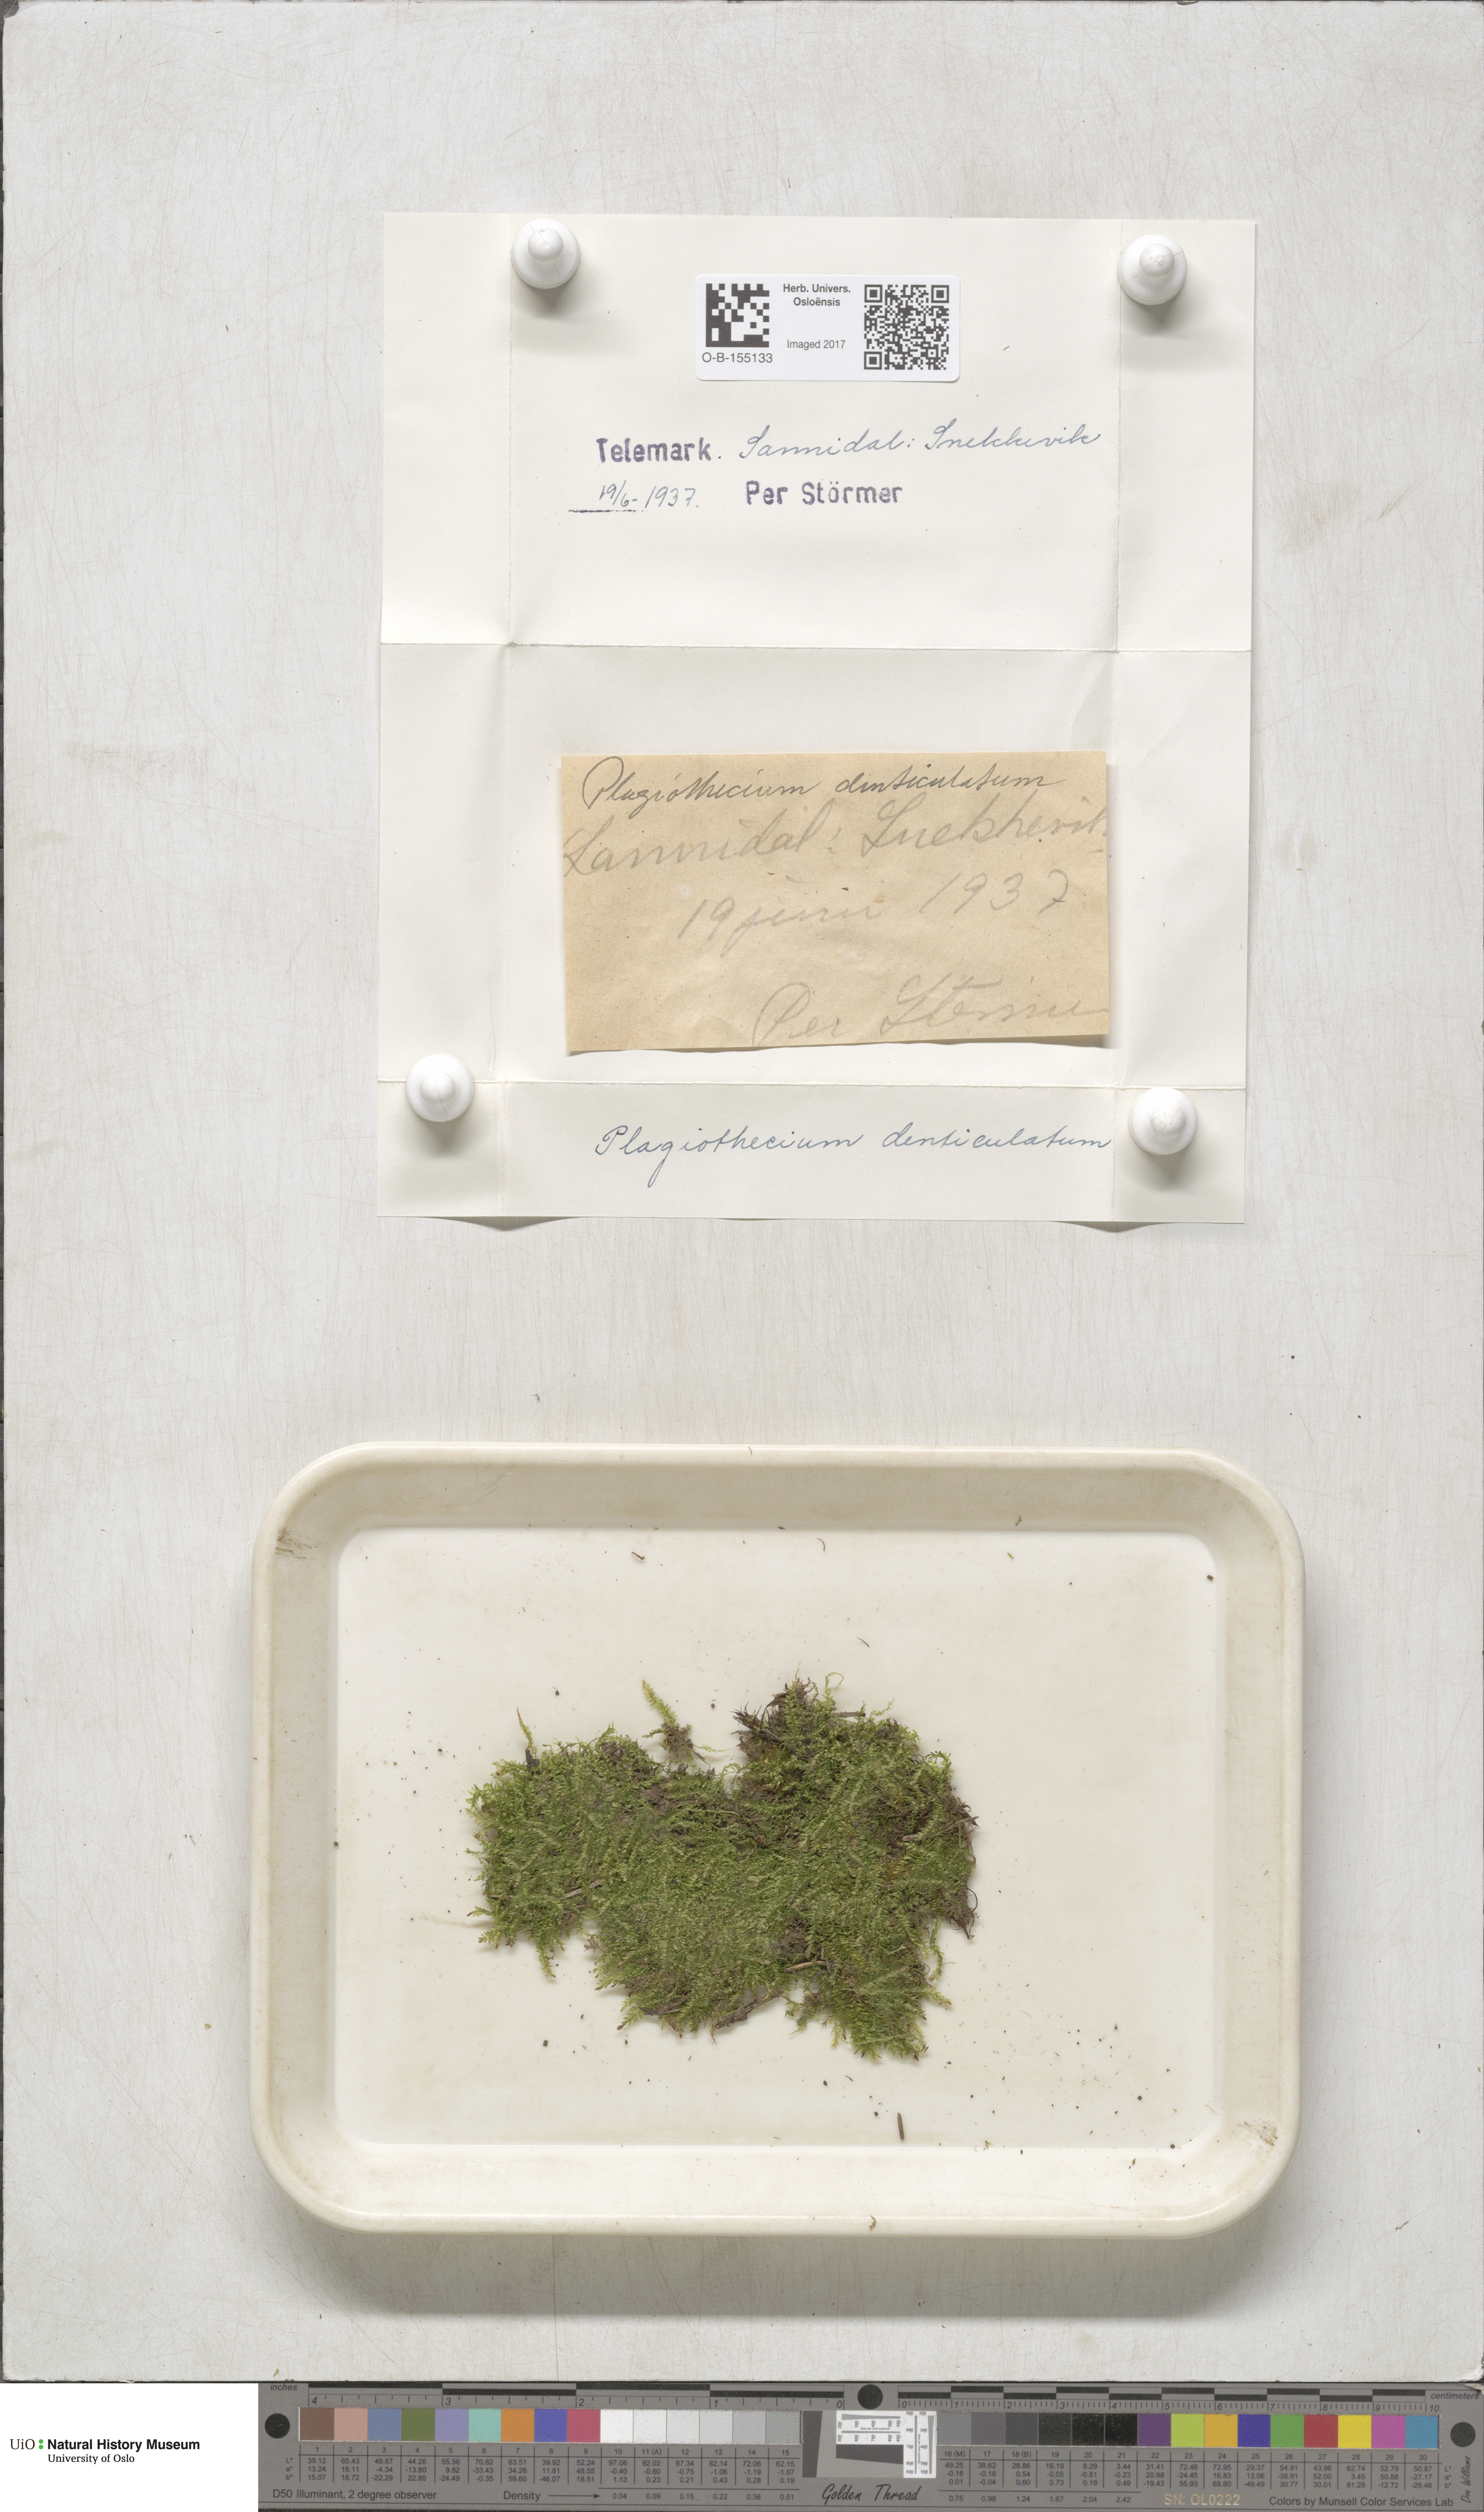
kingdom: Plantae
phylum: Bryophyta
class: Bryopsida
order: Hypnales
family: Plagiotheciaceae
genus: Plagiothecium
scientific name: Plagiothecium denticulatum
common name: Dented silk moss
